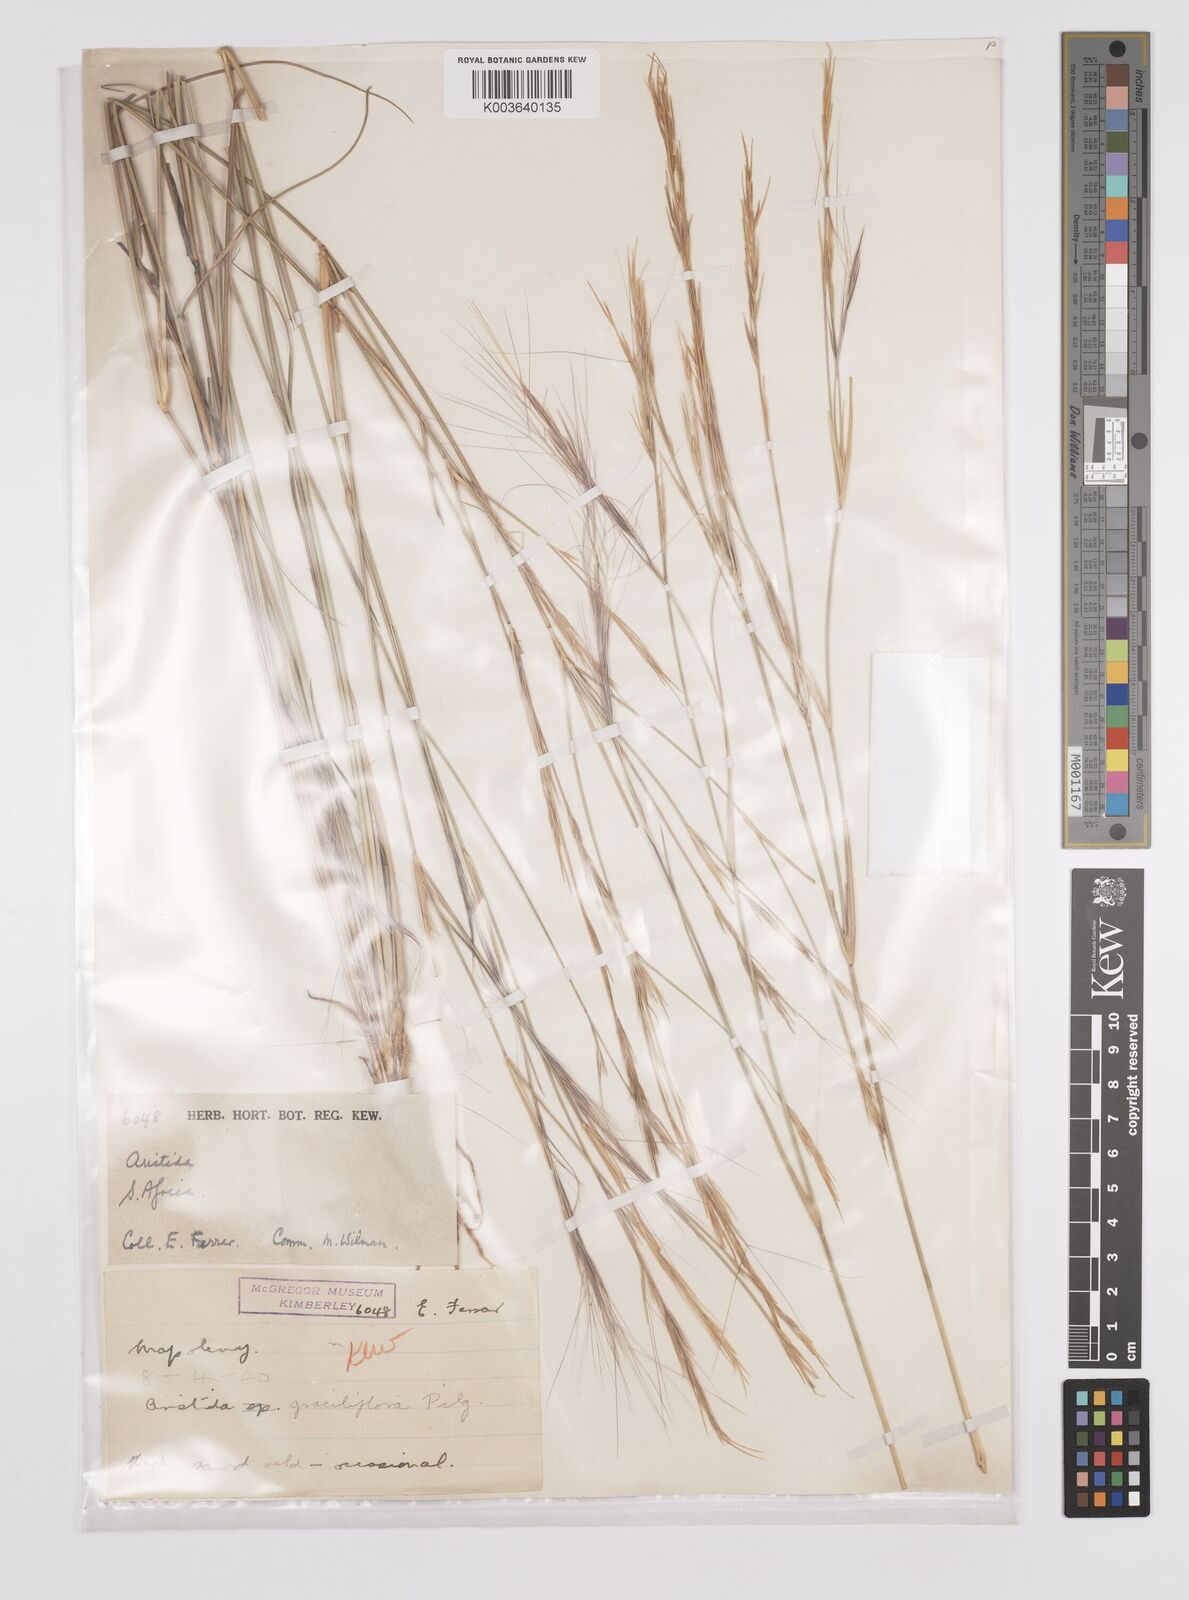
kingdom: Plantae
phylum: Tracheophyta
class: Liliopsida
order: Poales
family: Poaceae
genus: Aristida
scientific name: Aristida stipitata
